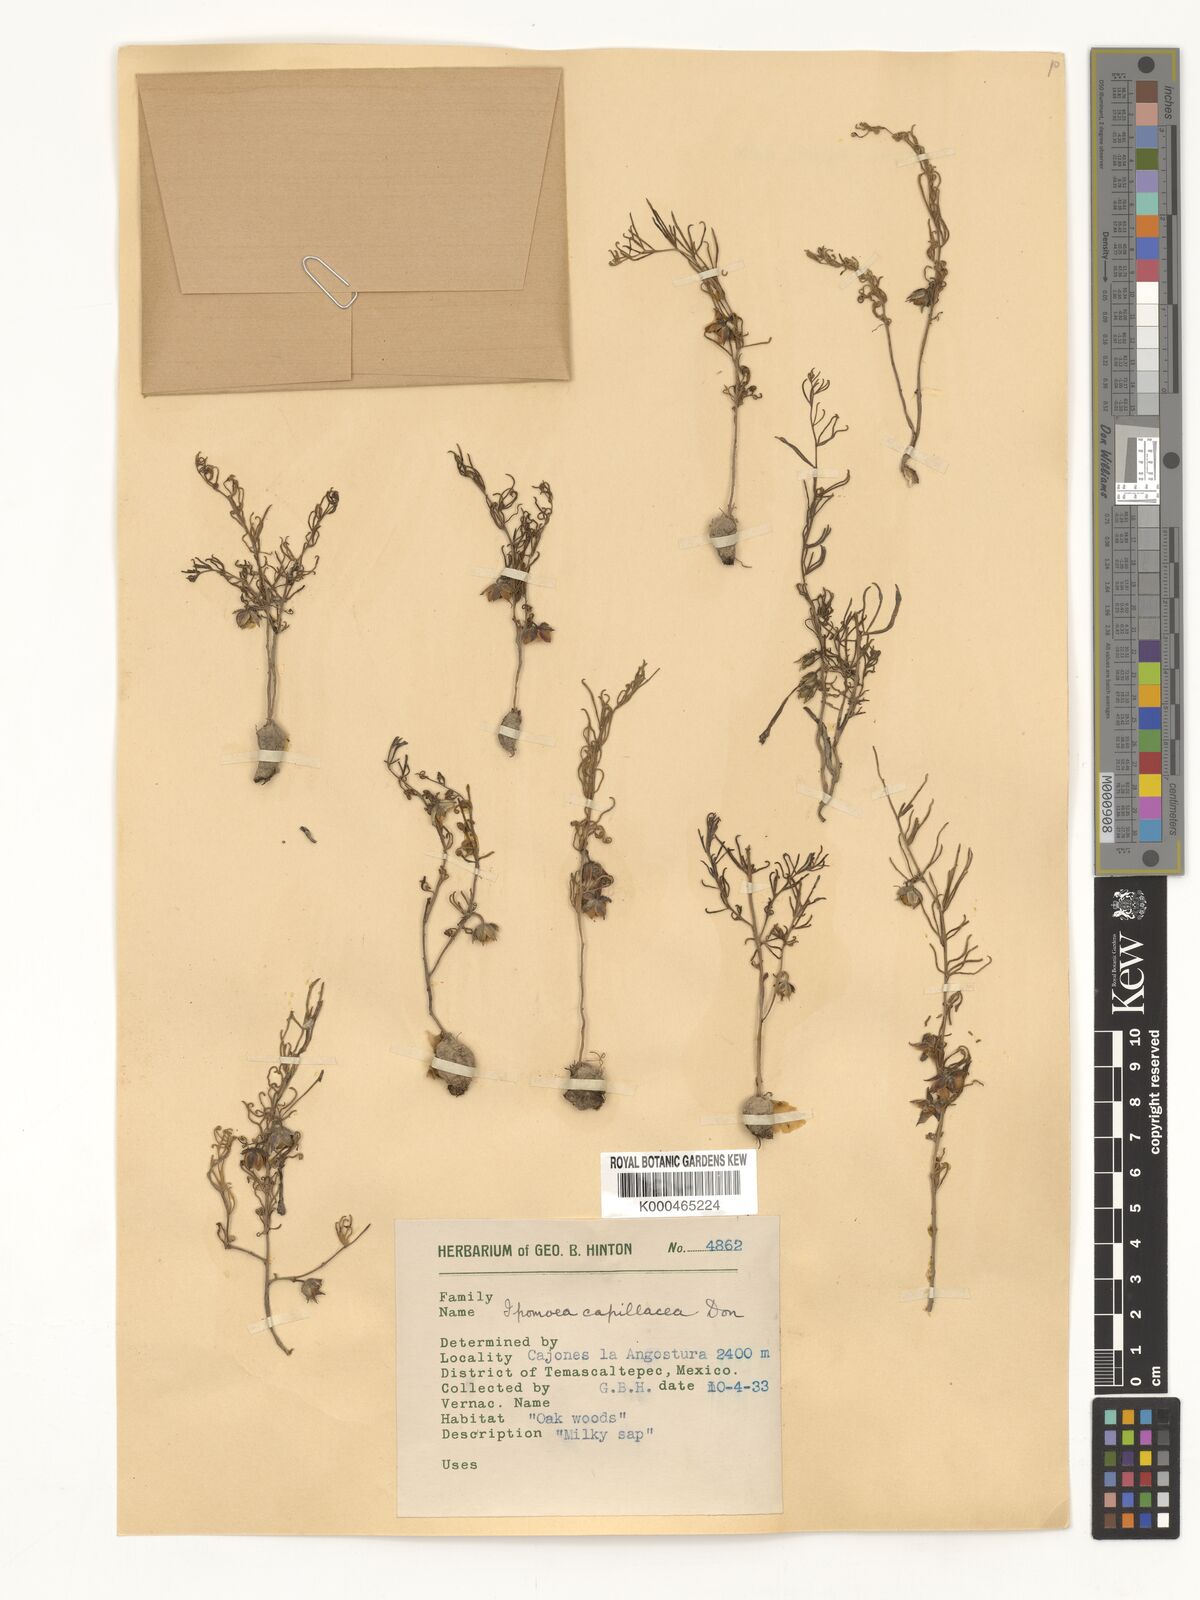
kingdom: Plantae
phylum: Tracheophyta
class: Magnoliopsida
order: Solanales
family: Convolvulaceae
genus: Ipomoea
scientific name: Ipomoea capillacea
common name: Purple morning-glory
